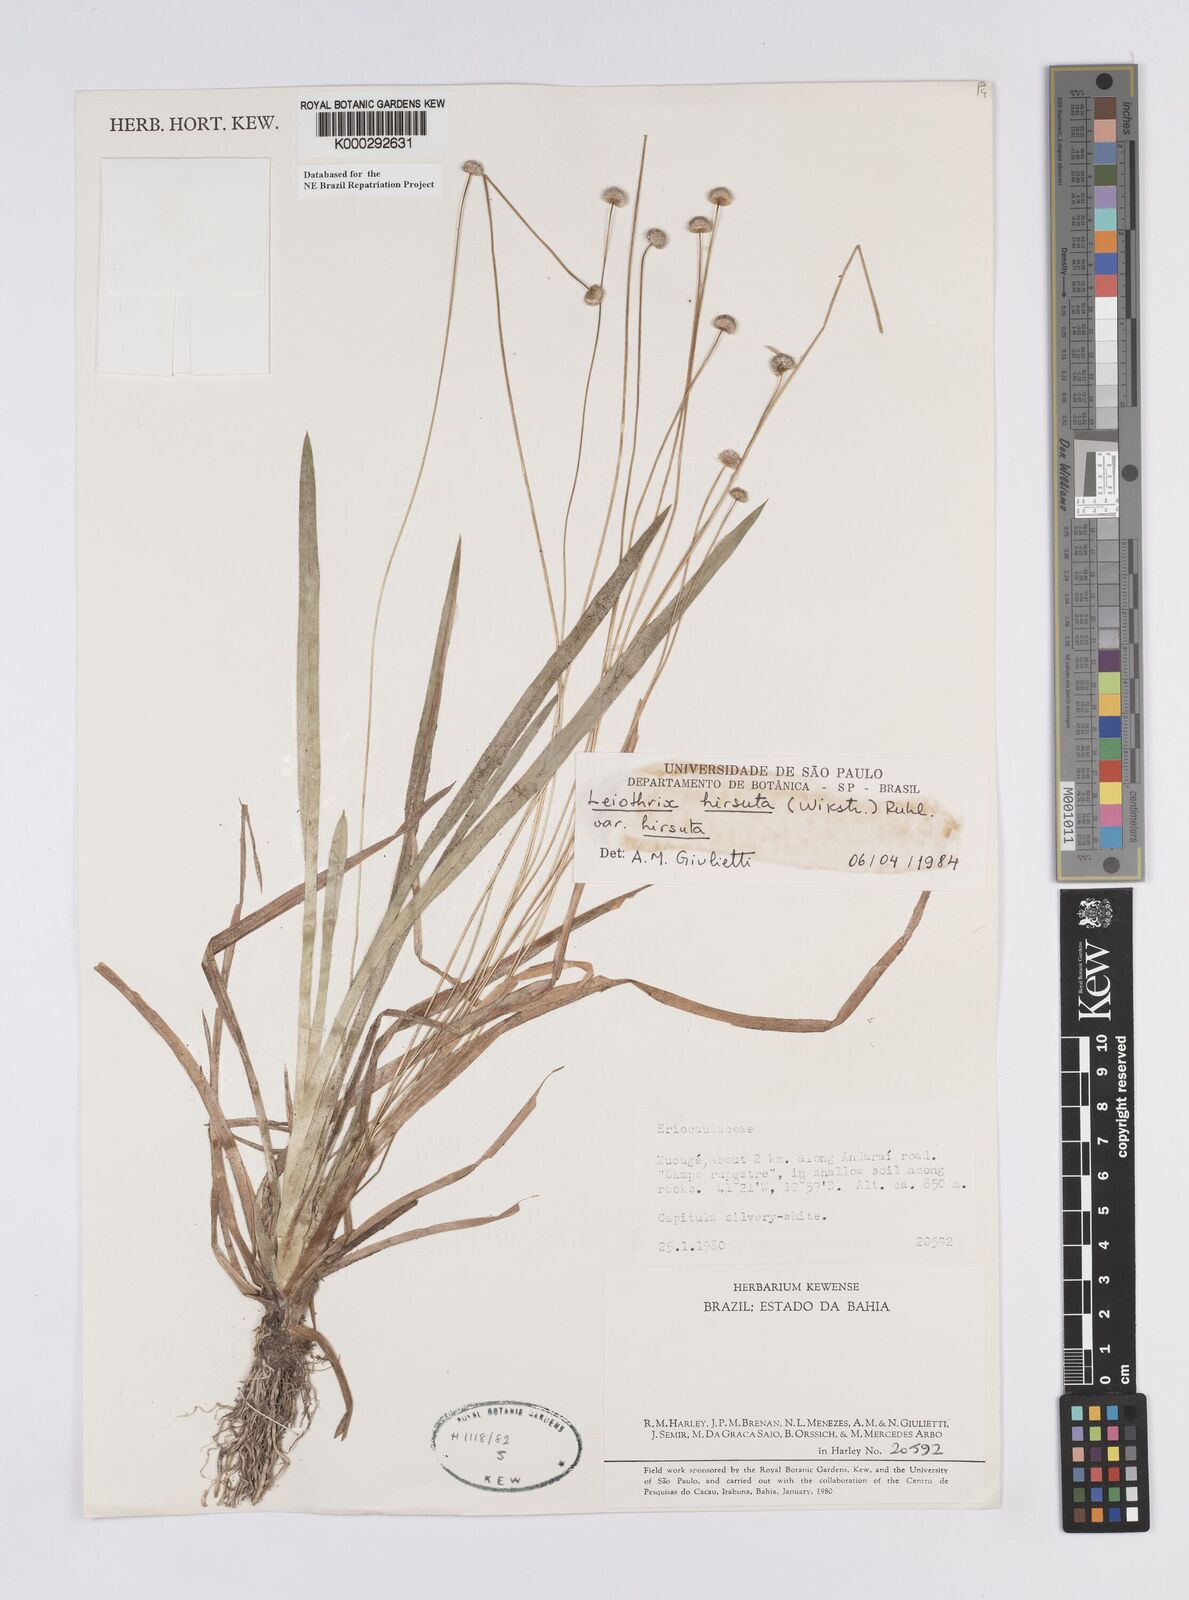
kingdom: Plantae
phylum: Tracheophyta
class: Liliopsida
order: Poales
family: Eriocaulaceae
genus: Leiothrix
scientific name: Leiothrix hirsuta
